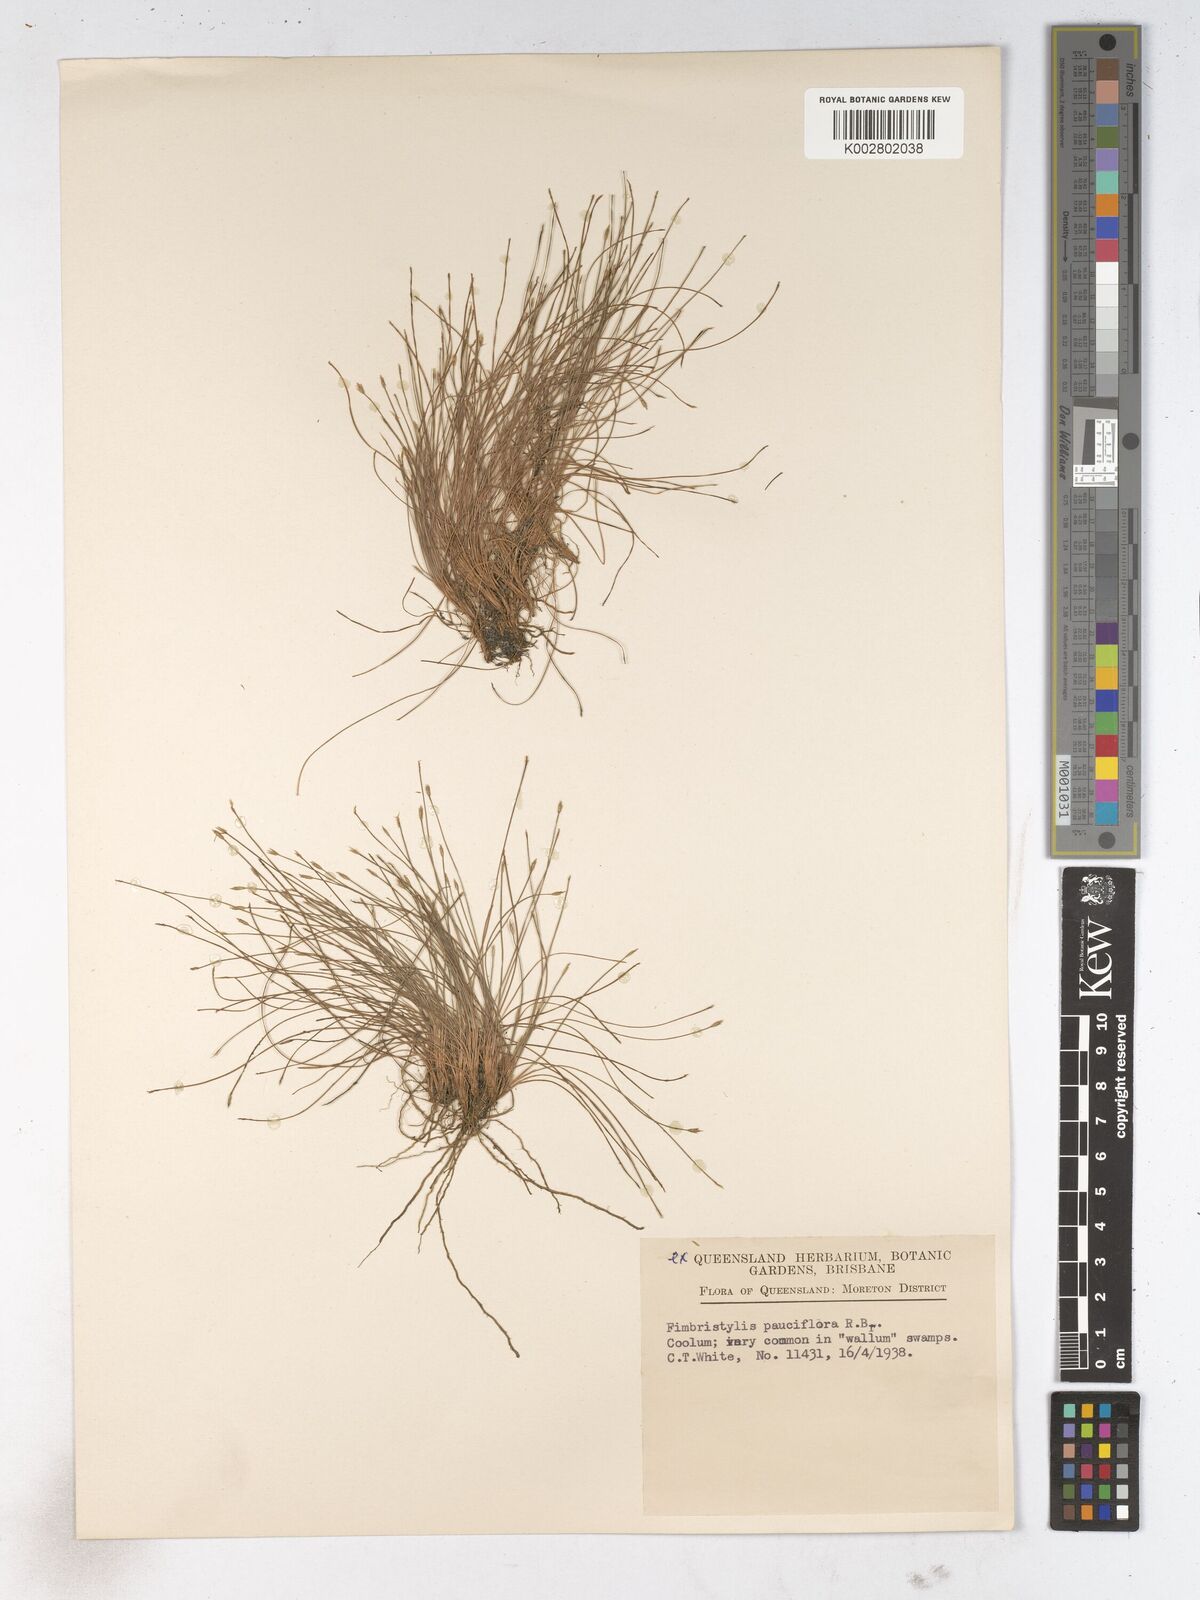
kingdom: Plantae
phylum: Tracheophyta
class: Liliopsida
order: Poales
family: Cyperaceae
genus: Fimbristylis
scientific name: Fimbristylis pauciflora
